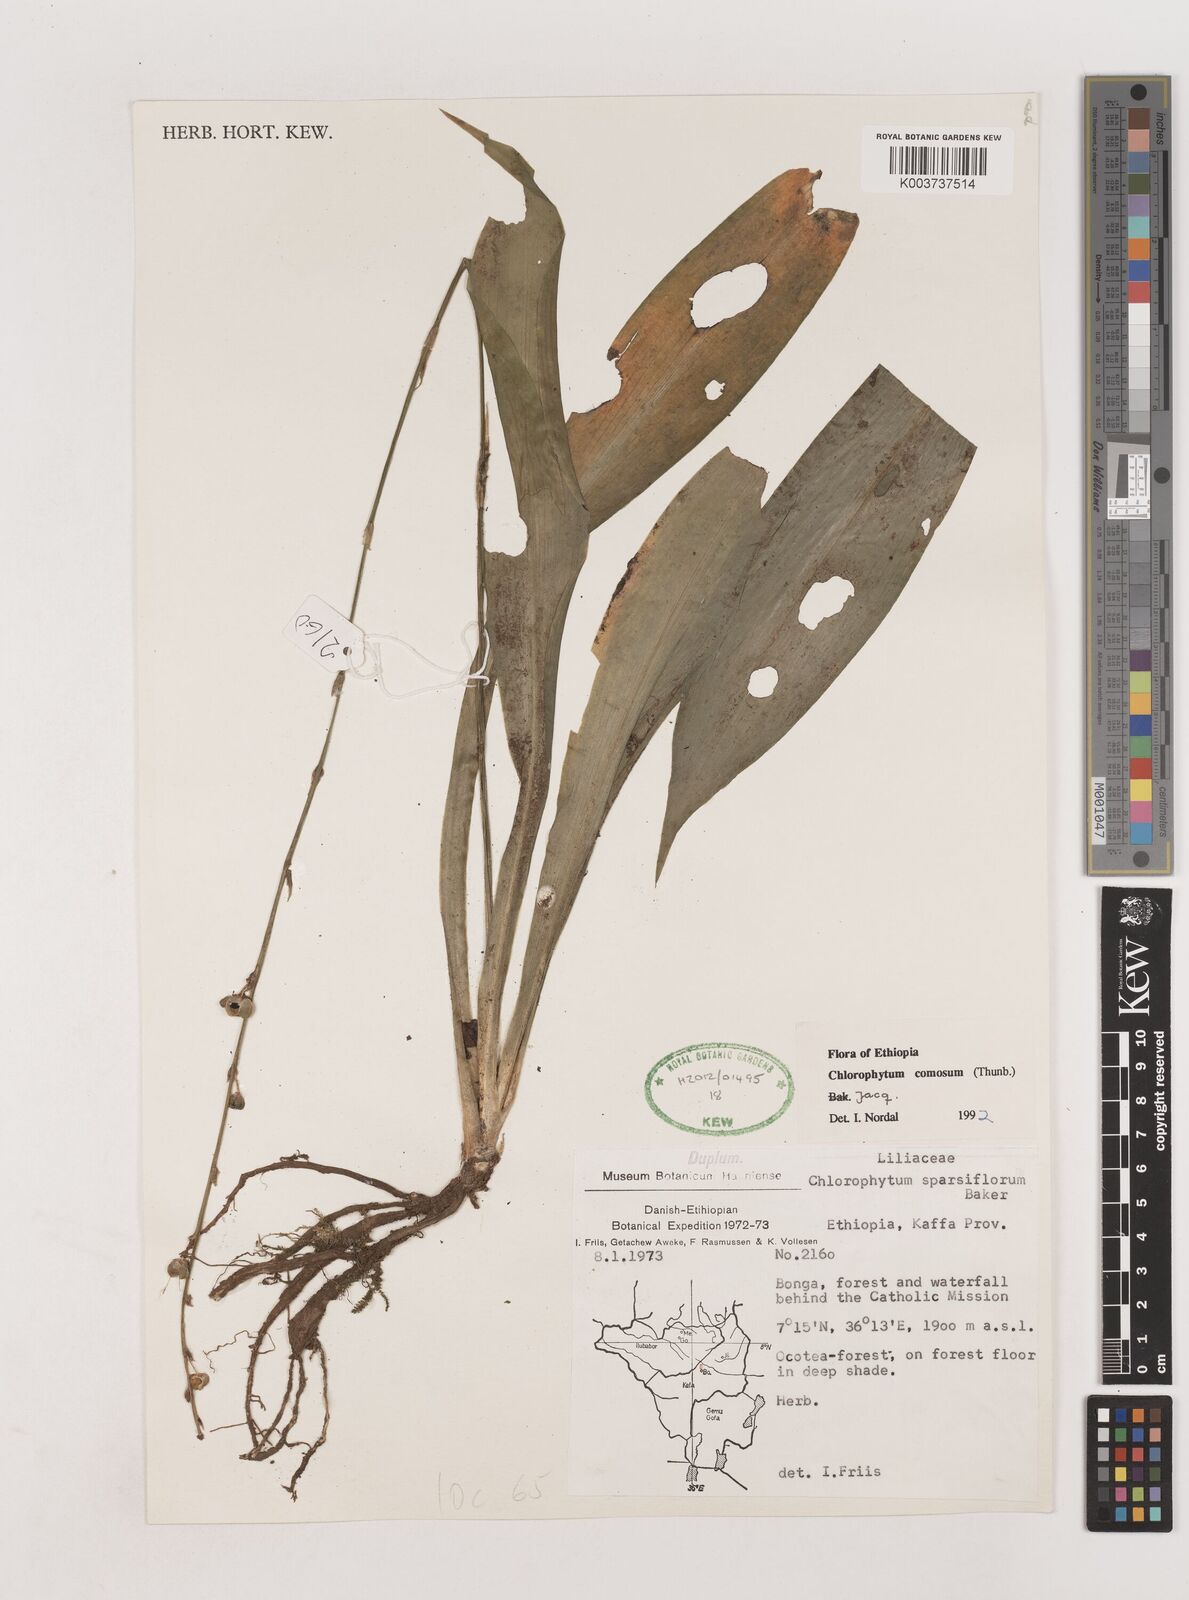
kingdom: Plantae
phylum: Tracheophyta
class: Liliopsida
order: Asparagales
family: Asparagaceae
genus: Chlorophytum
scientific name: Chlorophytum comosum
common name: Spider plant
